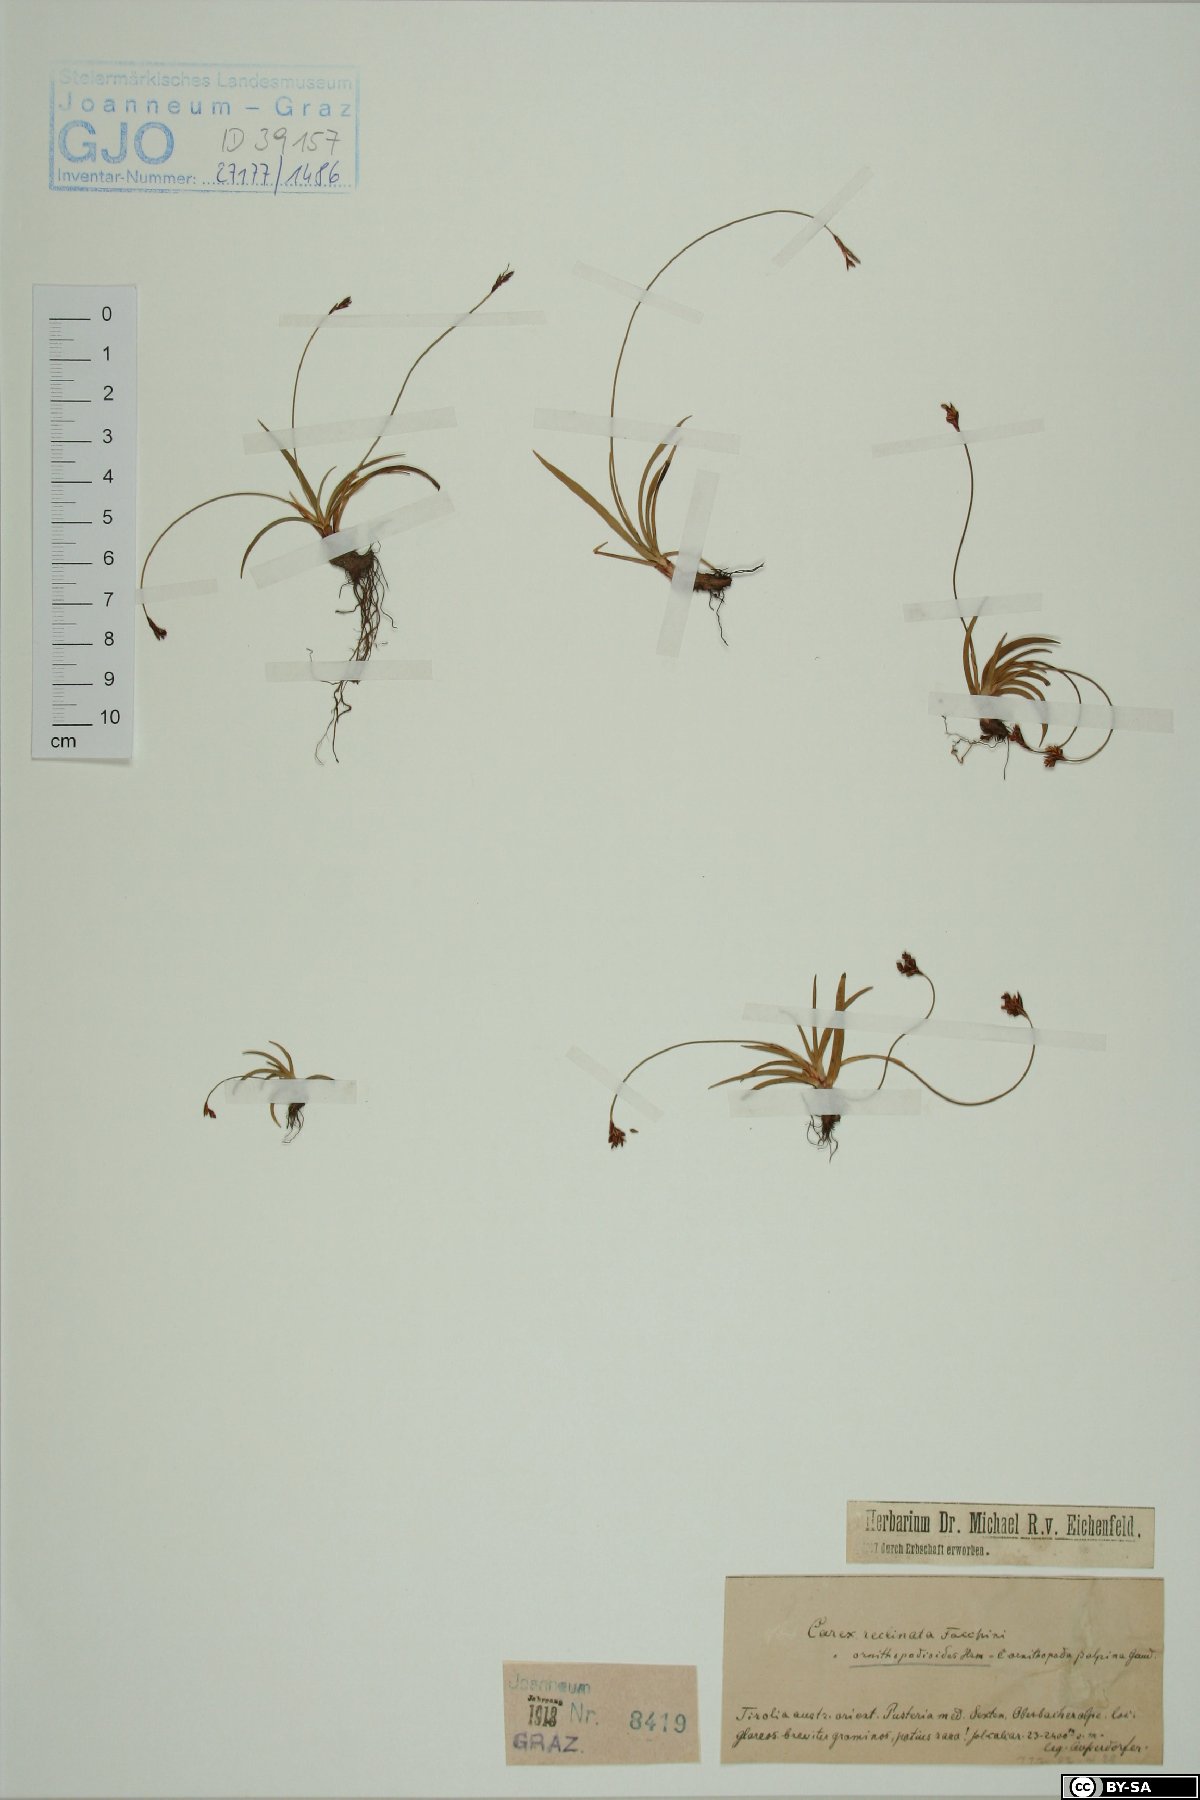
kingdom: Plantae
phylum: Tracheophyta
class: Liliopsida
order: Poales
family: Cyperaceae
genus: Carex
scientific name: Carex ornithopoda
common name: Bird's-foot sedge
